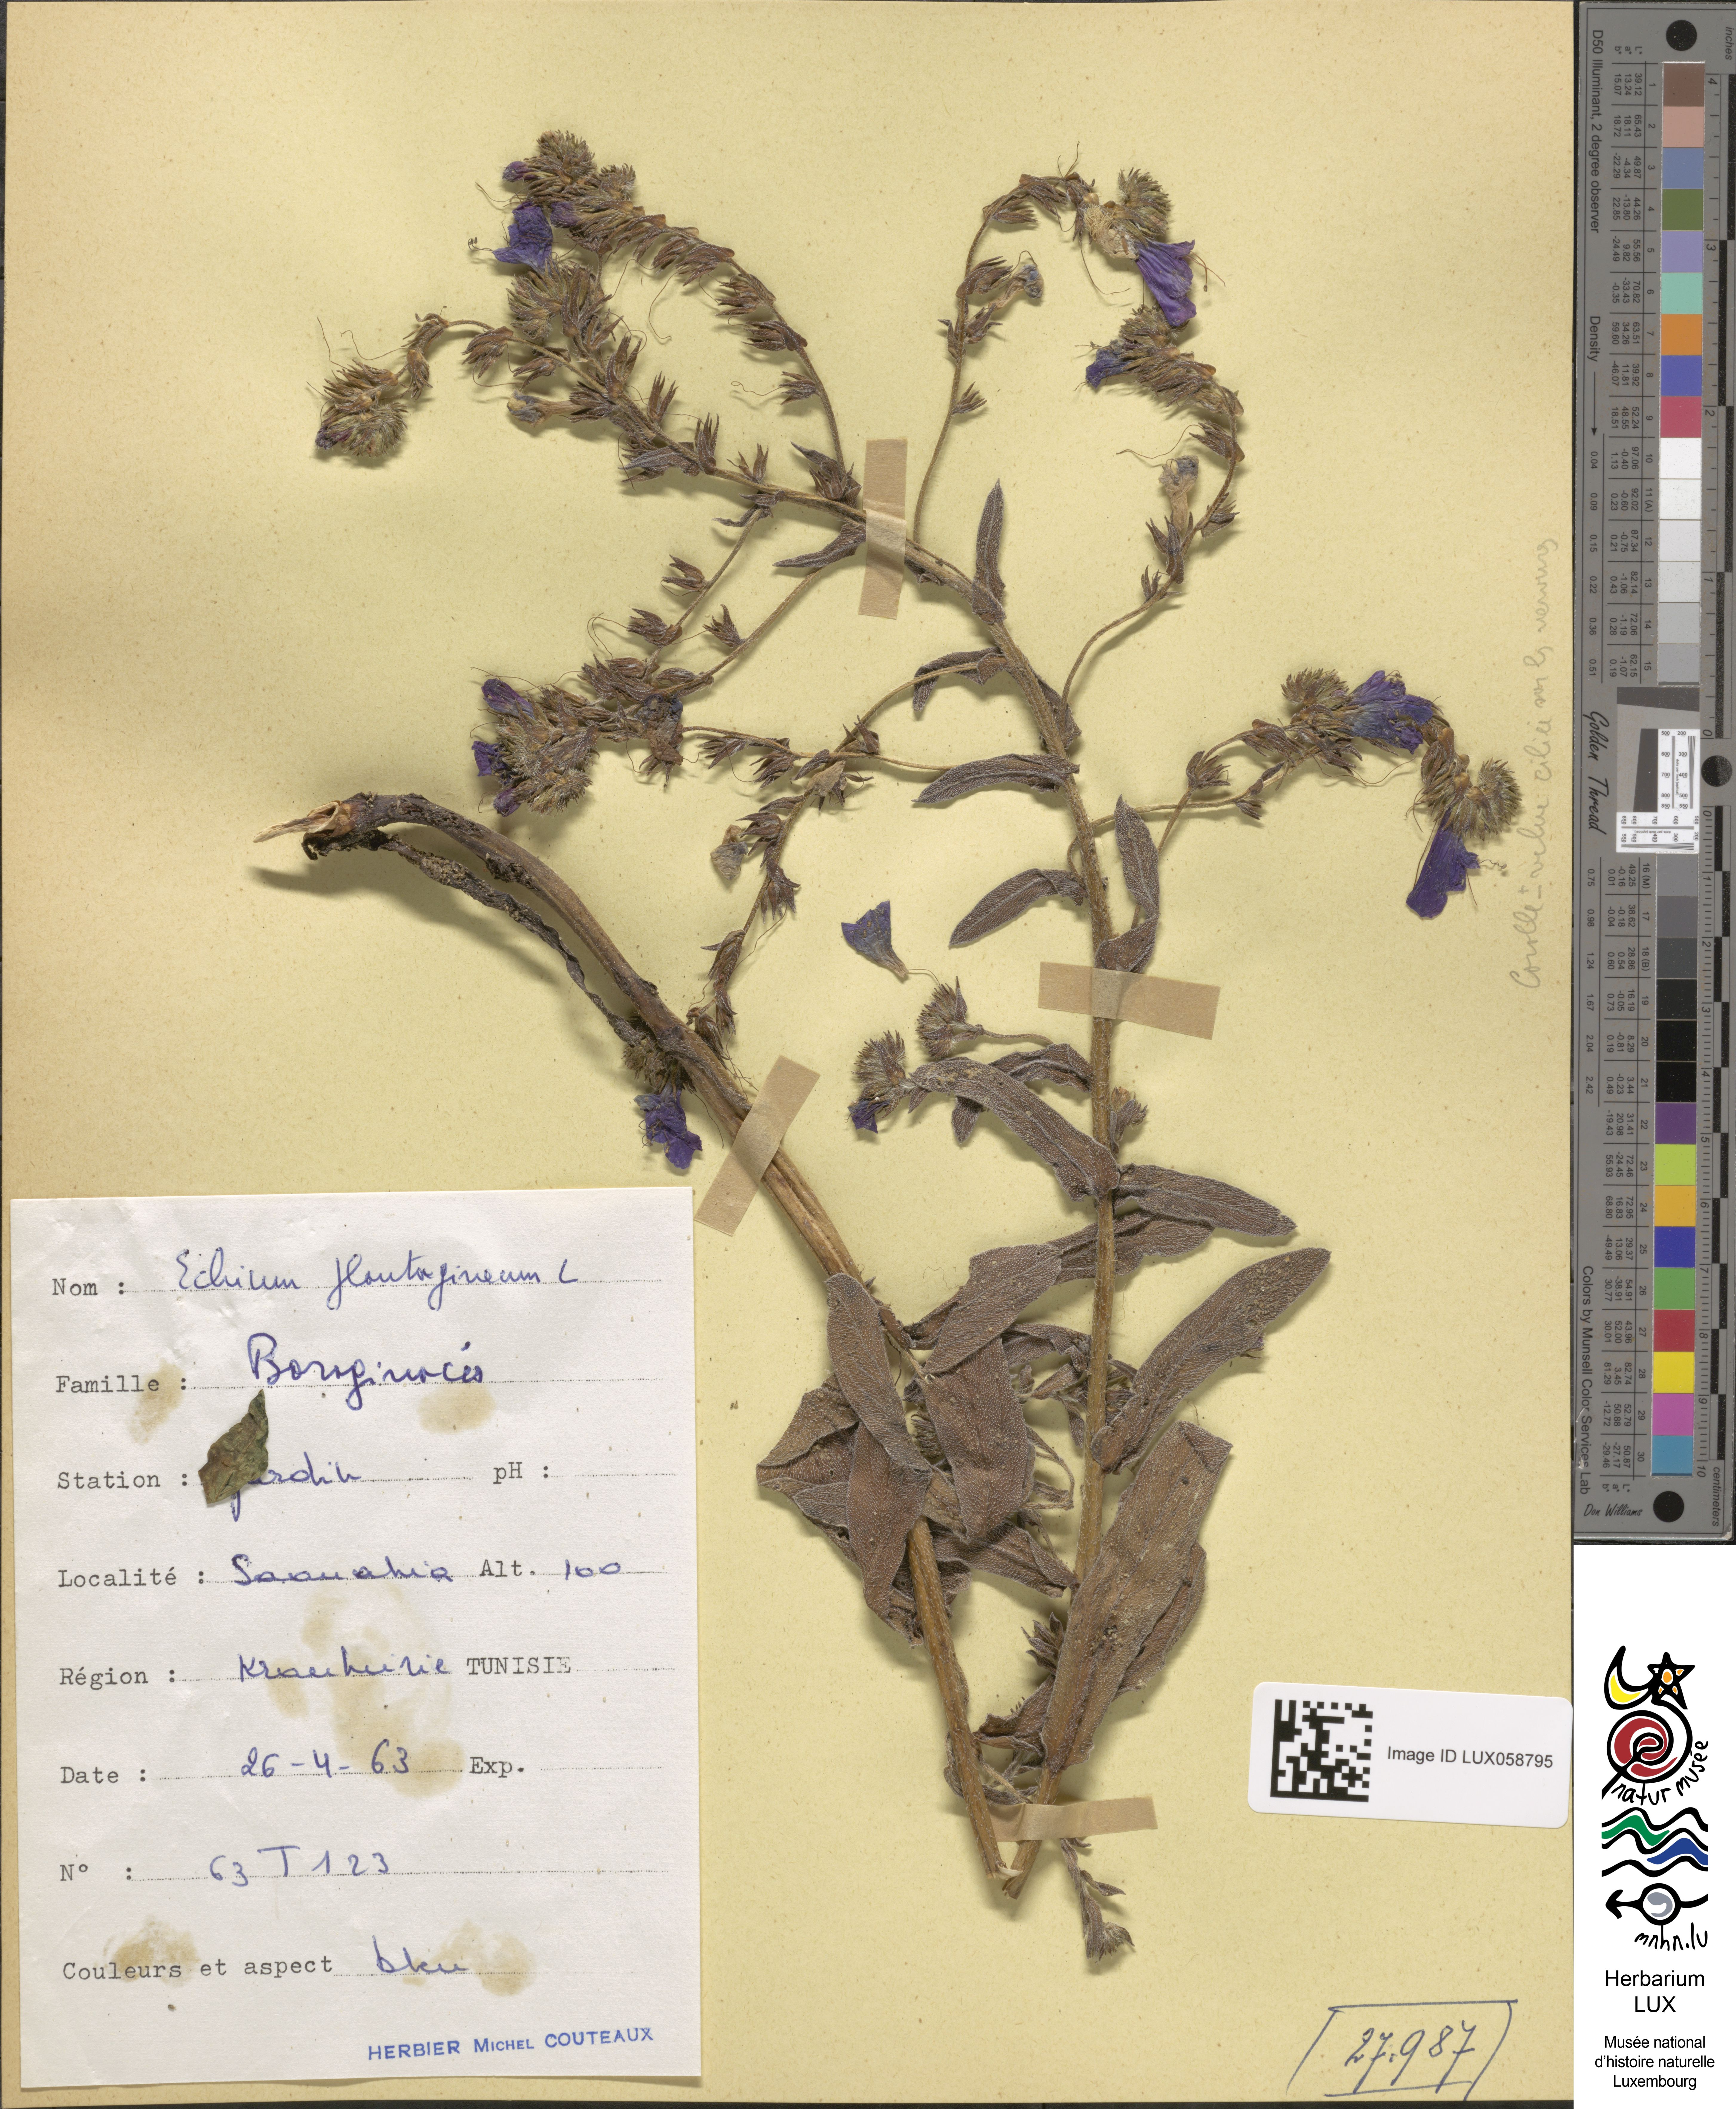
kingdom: Plantae
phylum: Tracheophyta
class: Magnoliopsida
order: Boraginales
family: Boraginaceae
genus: Echium
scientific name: Echium plantagineum
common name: Purple viper's-bugloss
